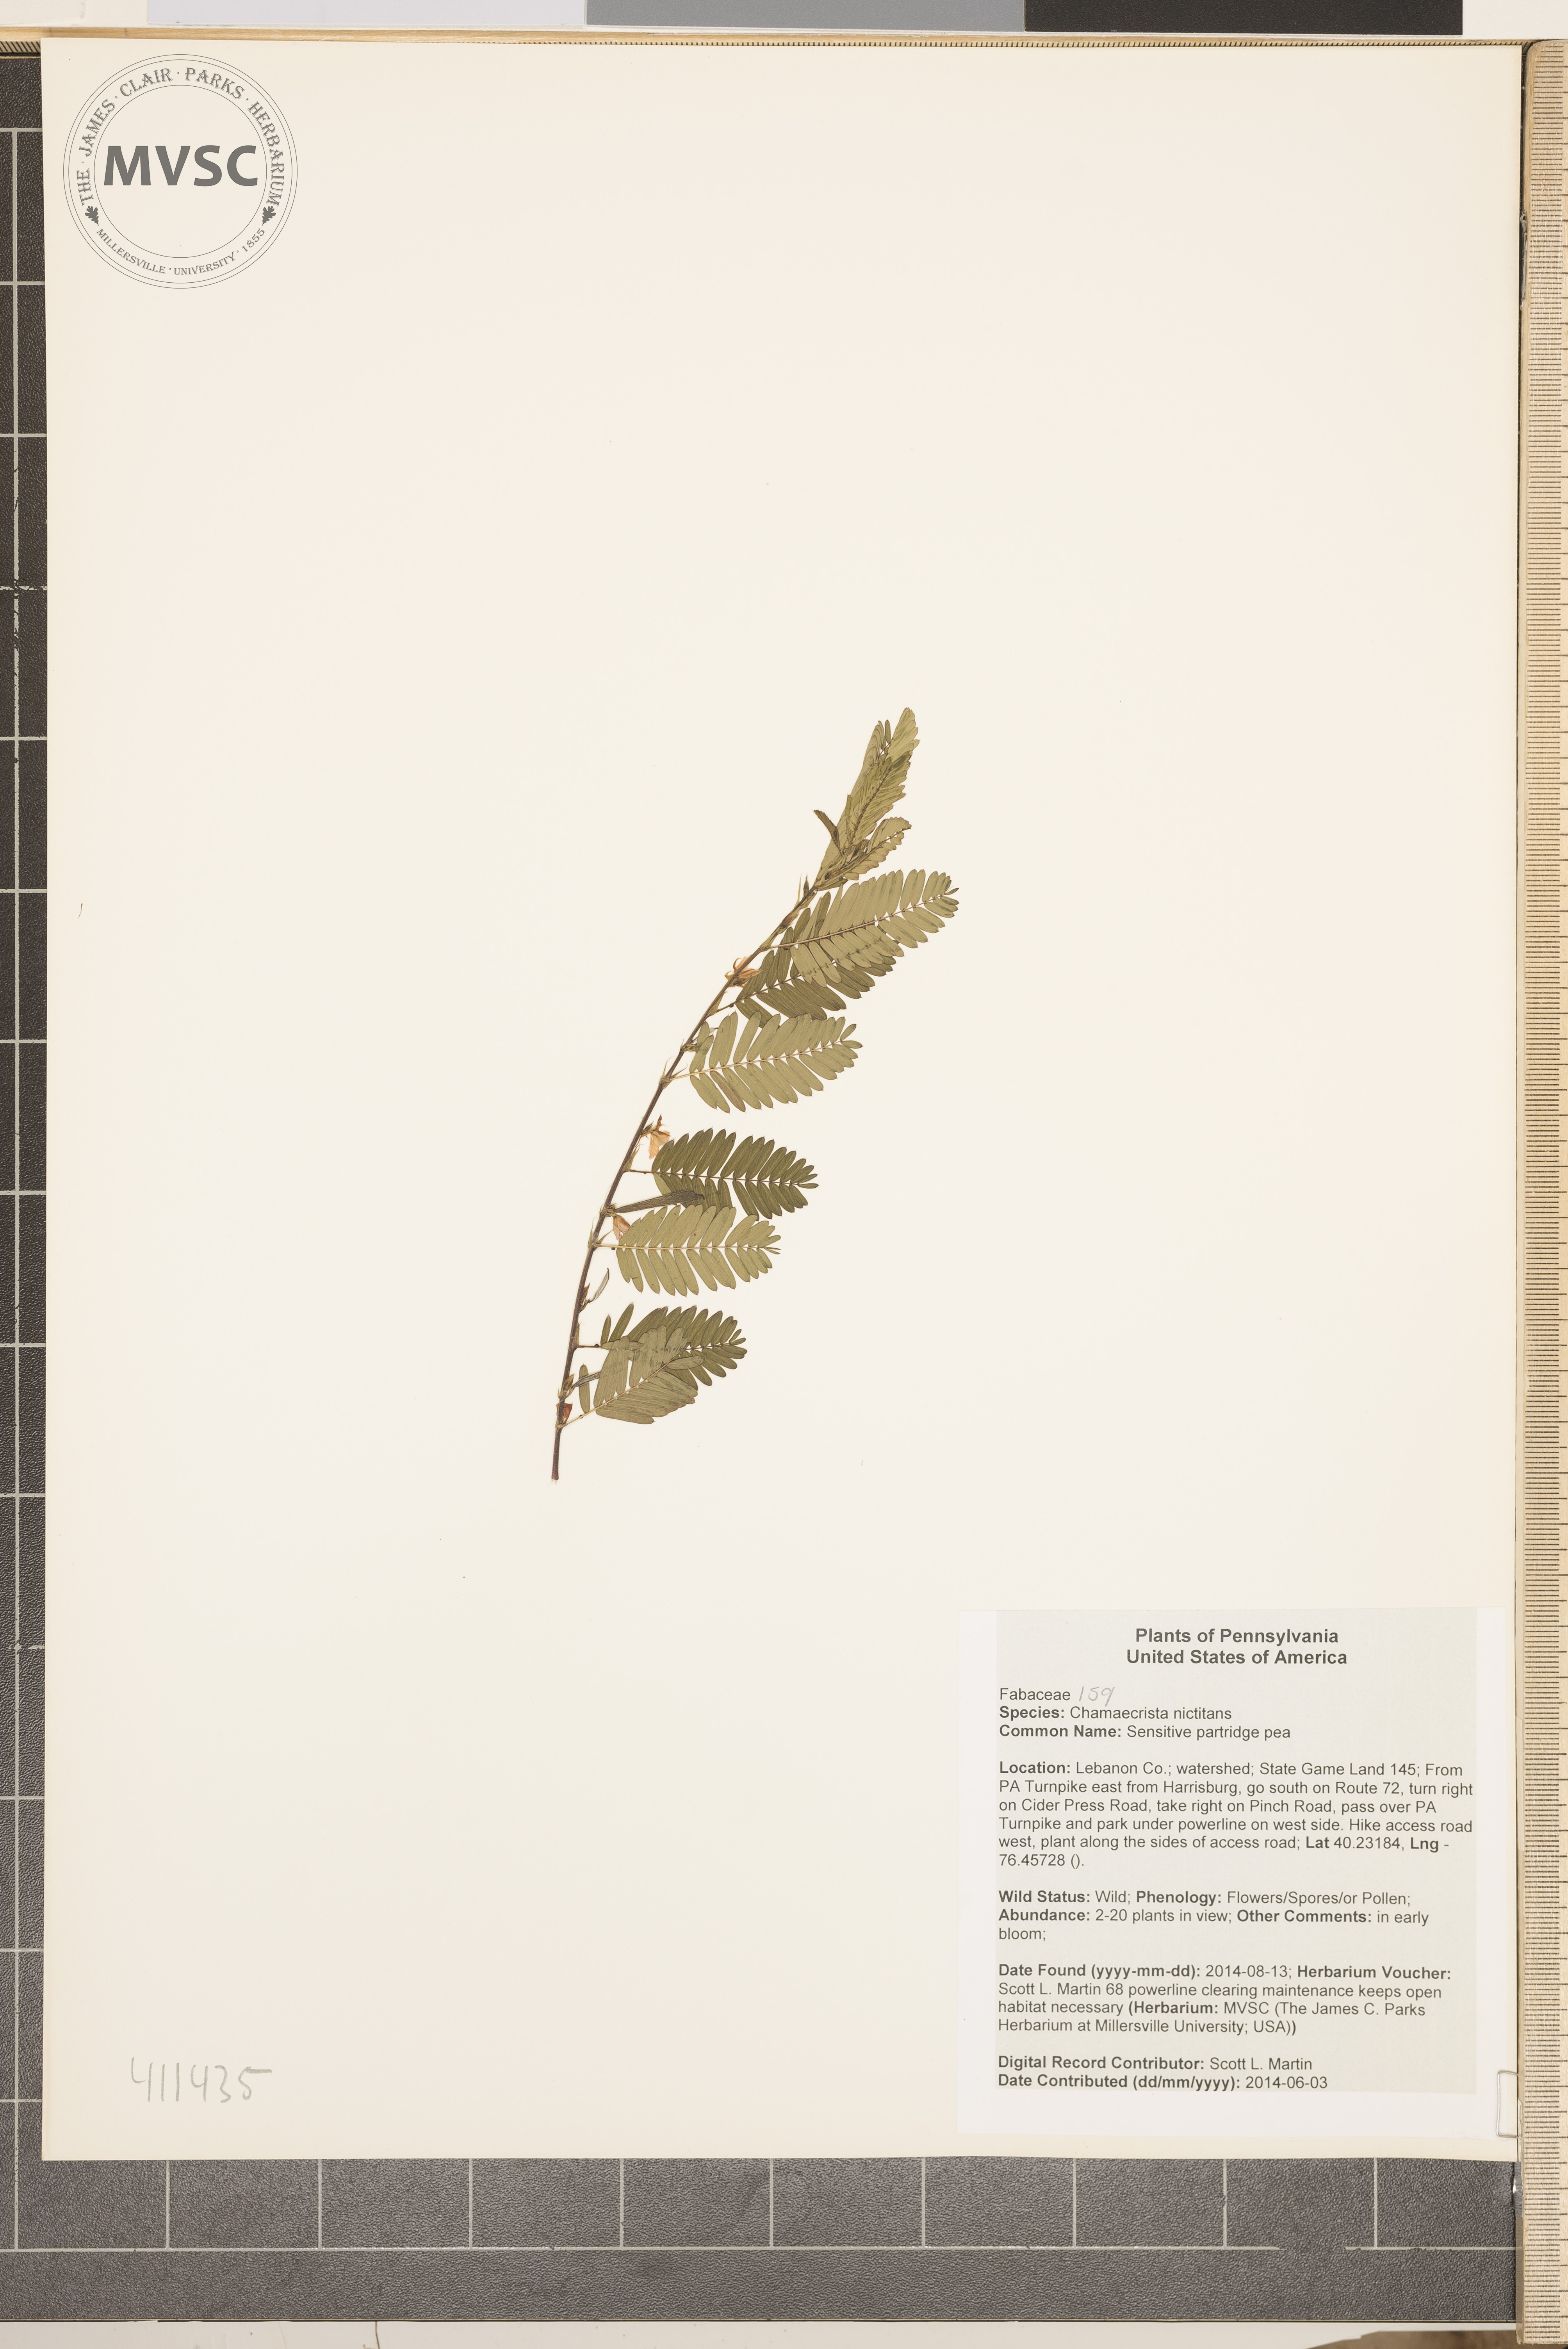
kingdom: Plantae
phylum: Tracheophyta
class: Magnoliopsida
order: Fabales
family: Fabaceae
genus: Chamaecrista
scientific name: Chamaecrista nictitans
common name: Sensitive partridge pea
